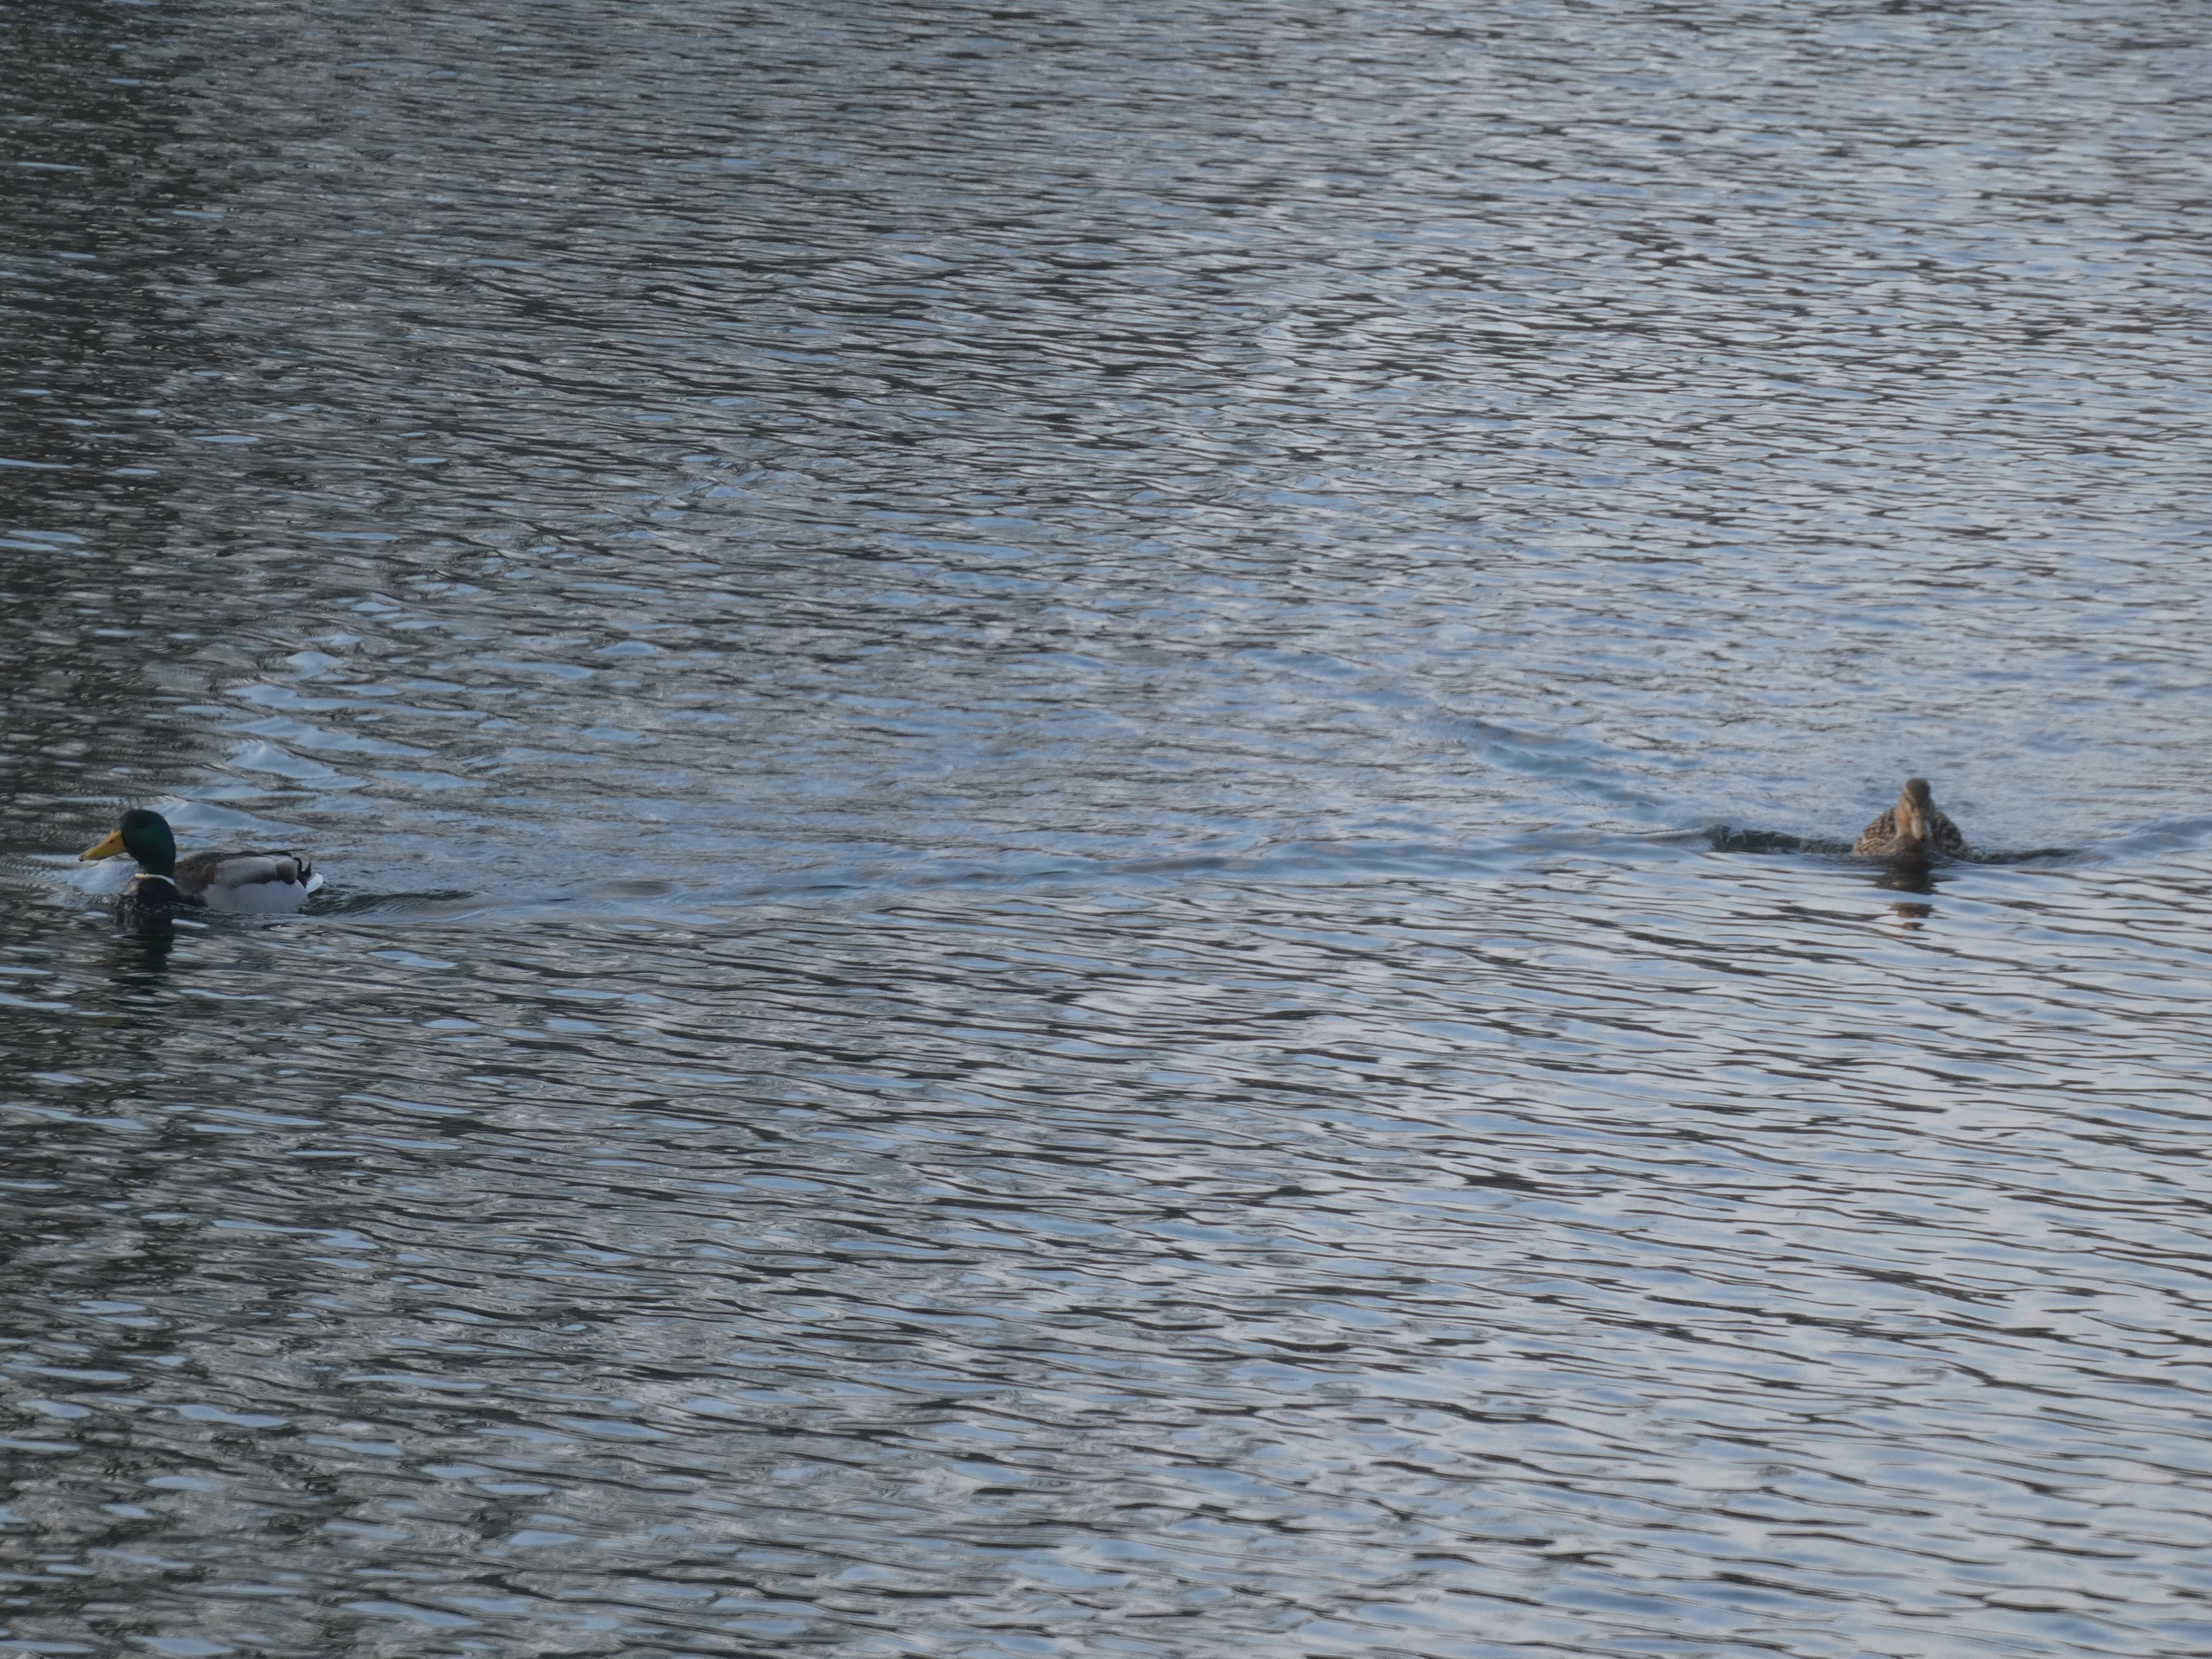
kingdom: Animalia
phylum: Chordata
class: Aves
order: Anseriformes
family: Anatidae
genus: Anas
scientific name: Anas platyrhynchos
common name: Gråand
